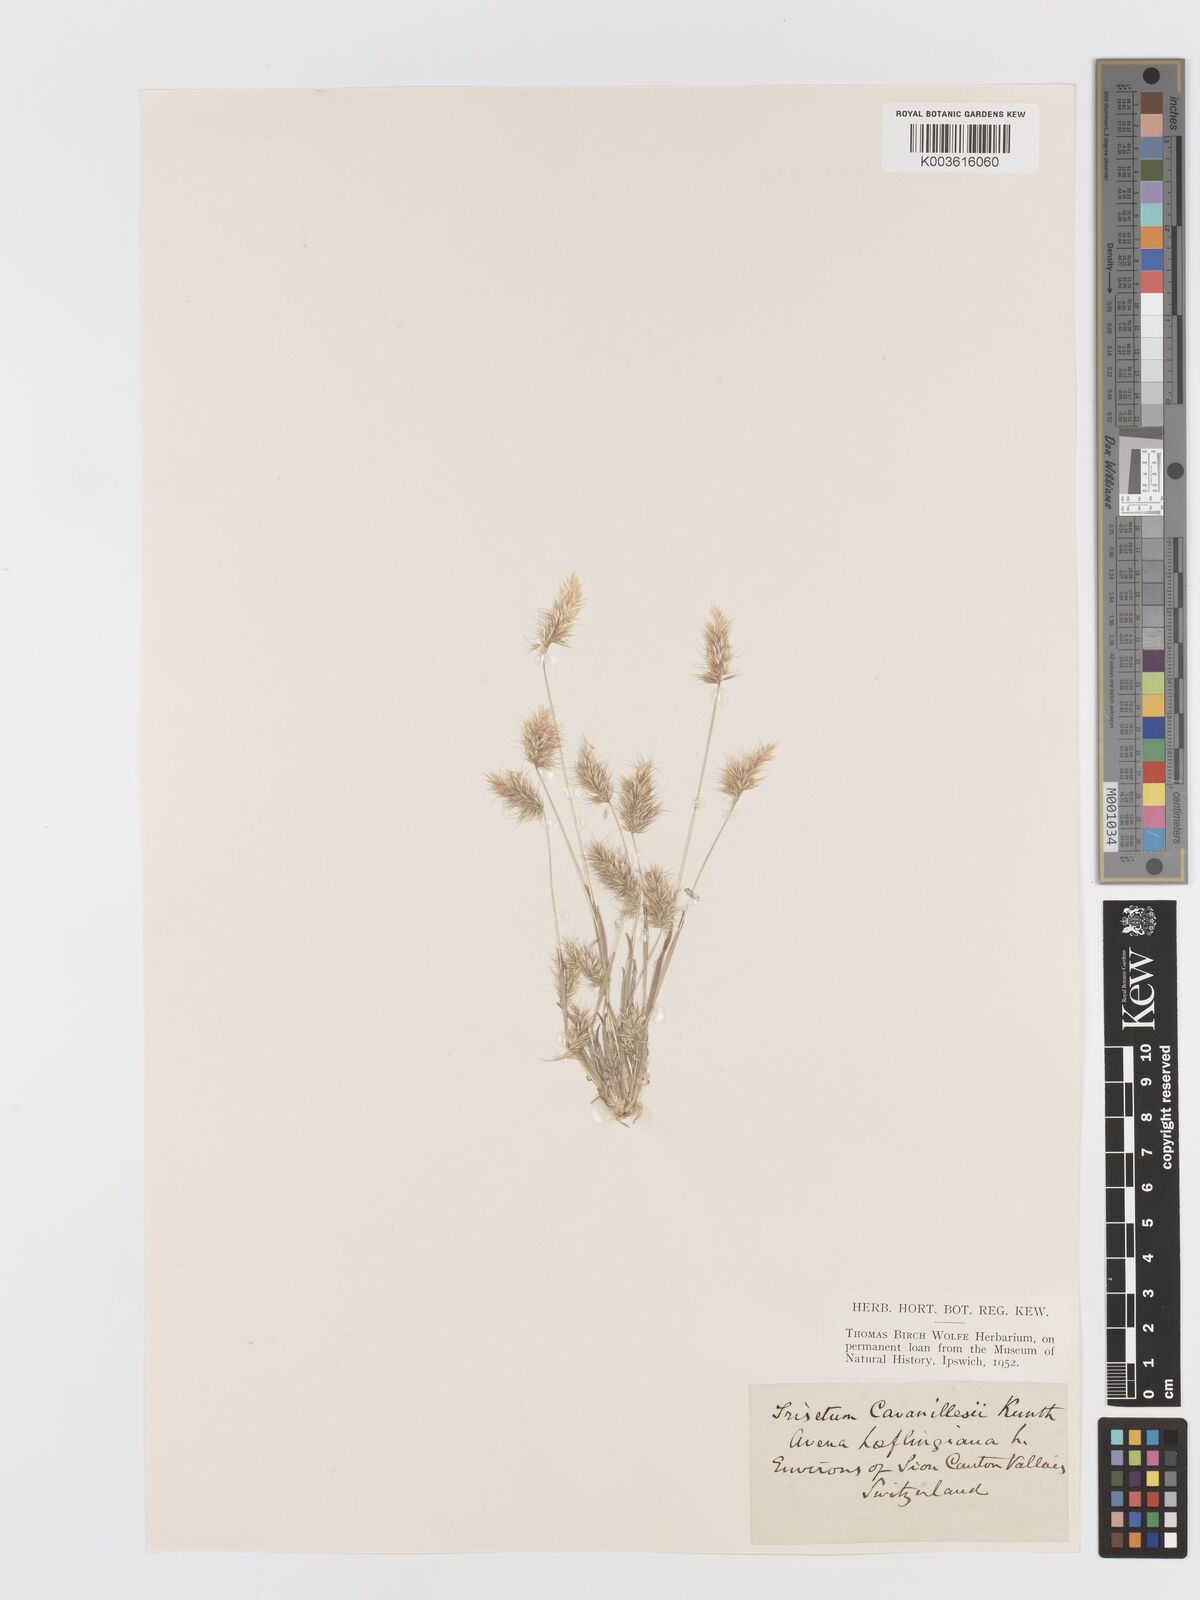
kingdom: Plantae
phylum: Tracheophyta
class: Liliopsida
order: Poales
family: Poaceae
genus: Trisetaria
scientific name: Trisetaria loeflingiana
